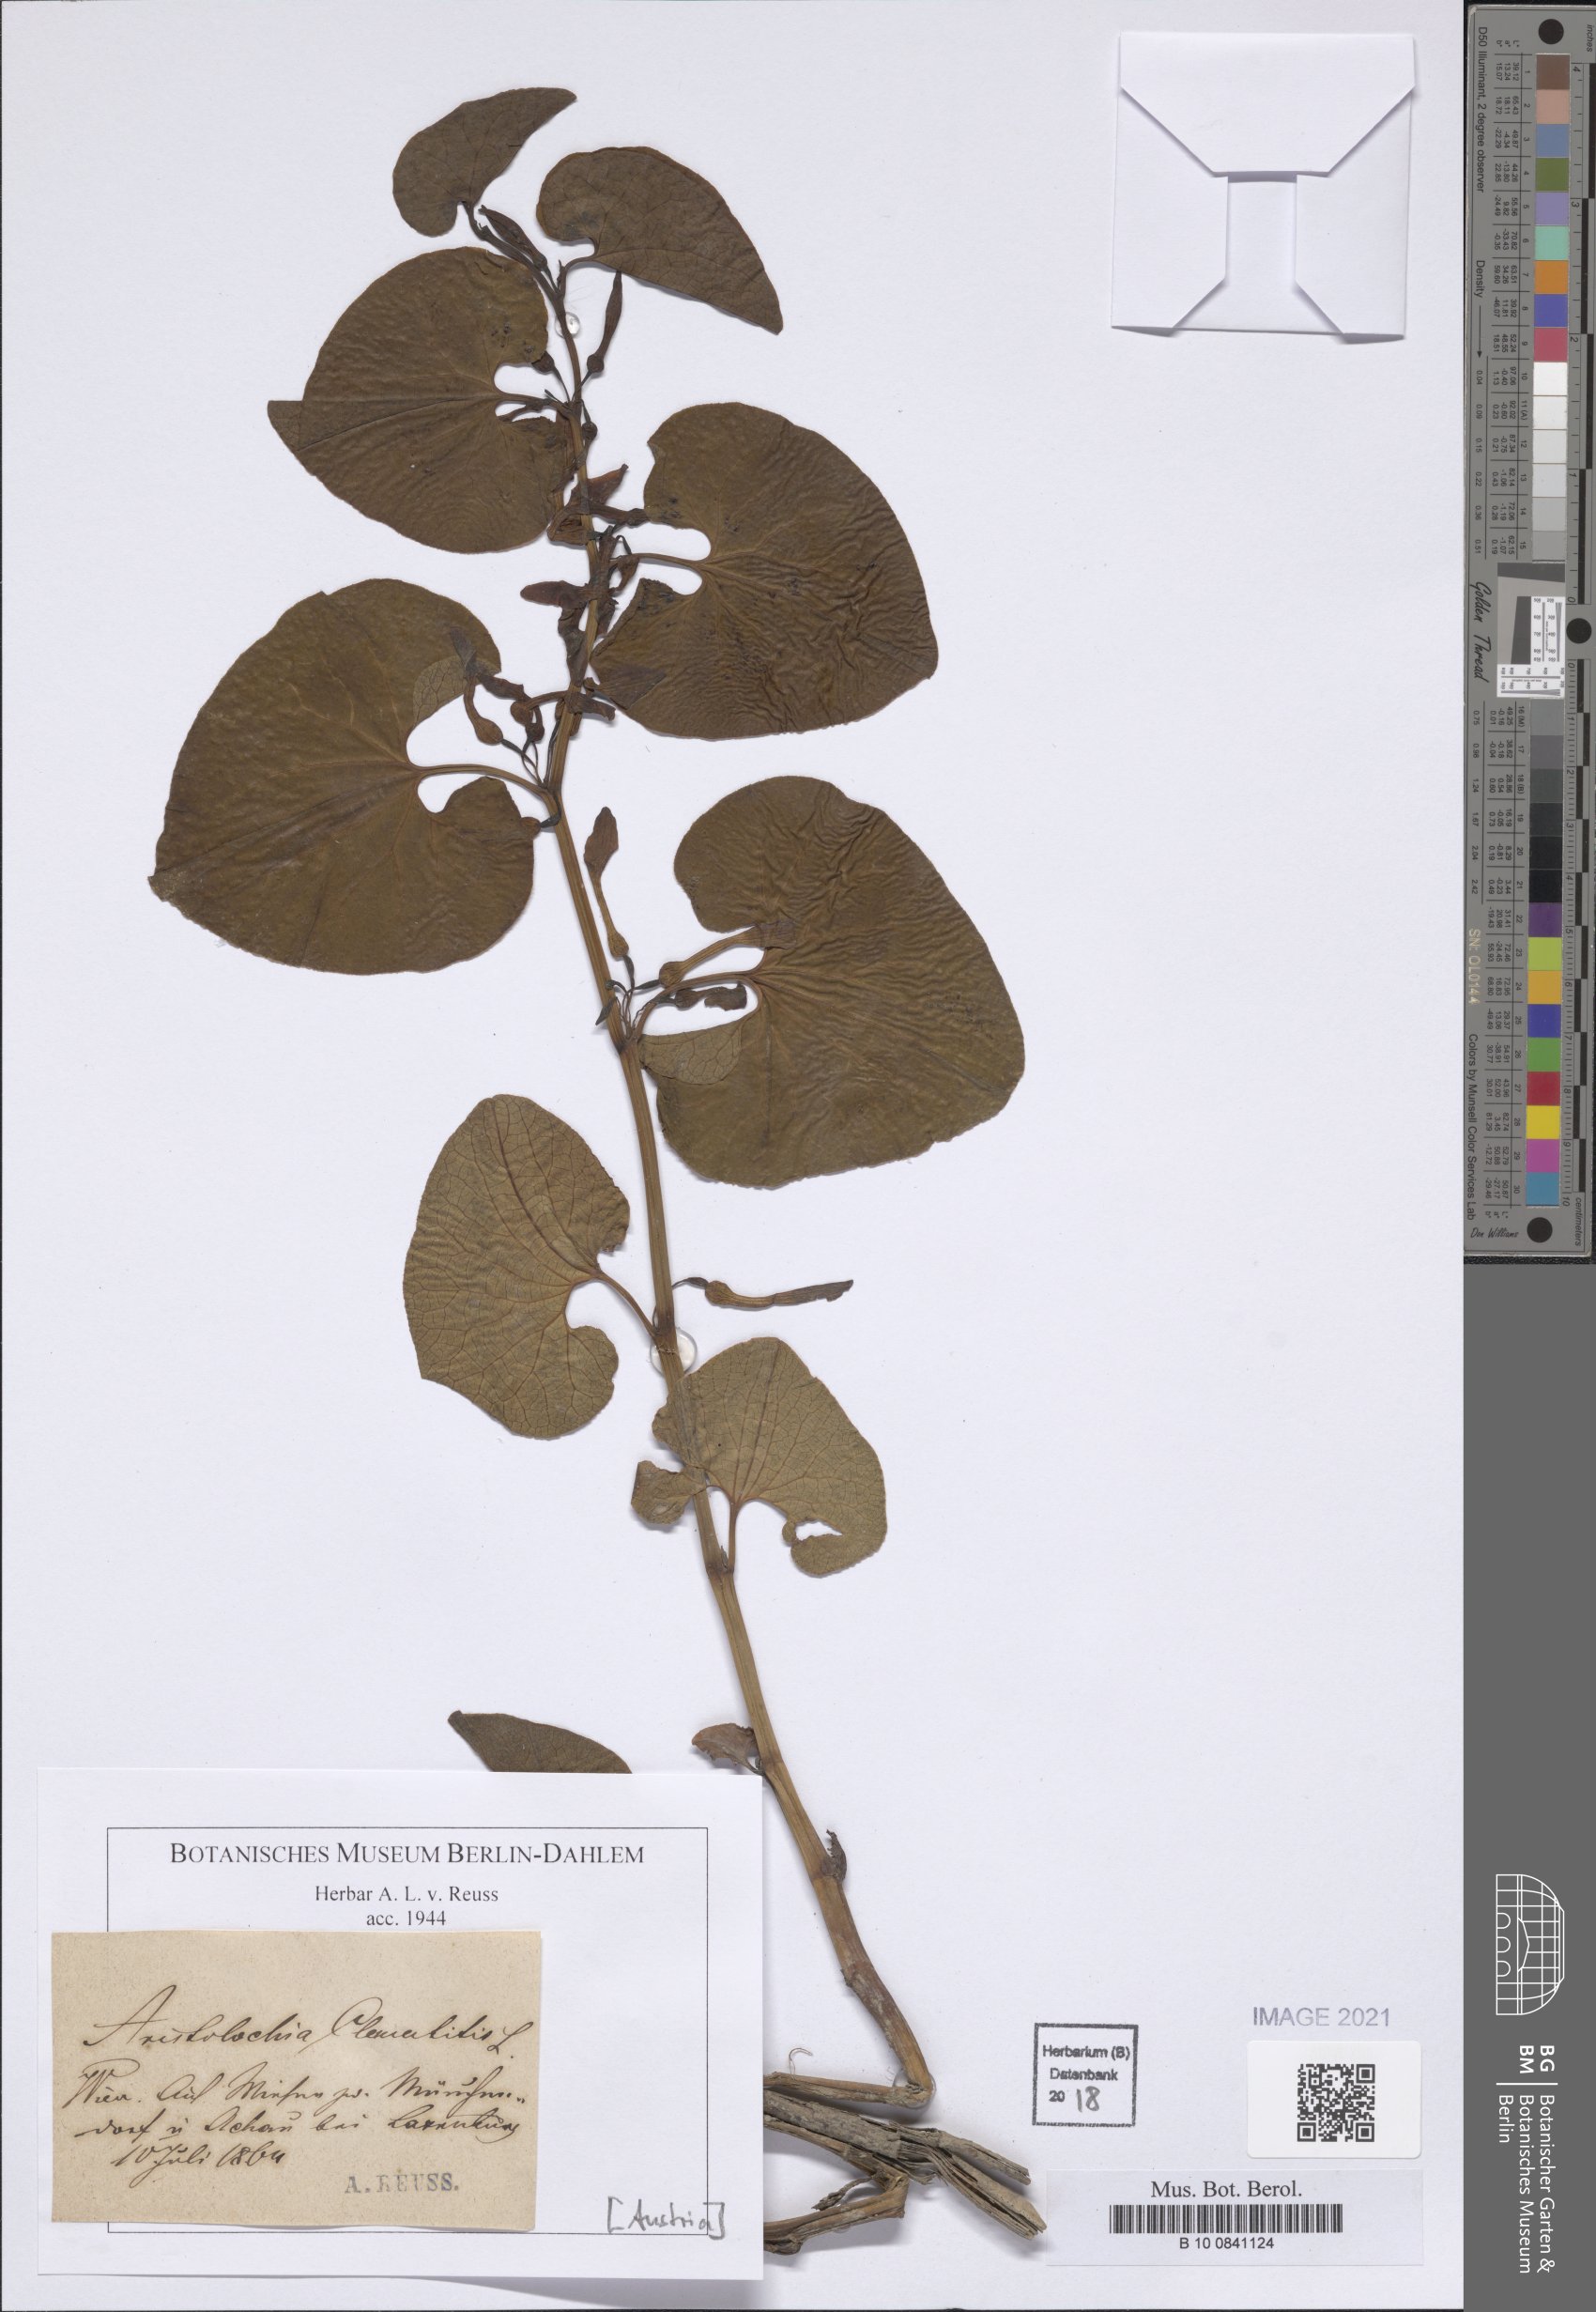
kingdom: Plantae
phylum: Tracheophyta
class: Magnoliopsida
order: Piperales
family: Aristolochiaceae
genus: Aristolochia
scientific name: Aristolochia clematitis
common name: Birthwort
